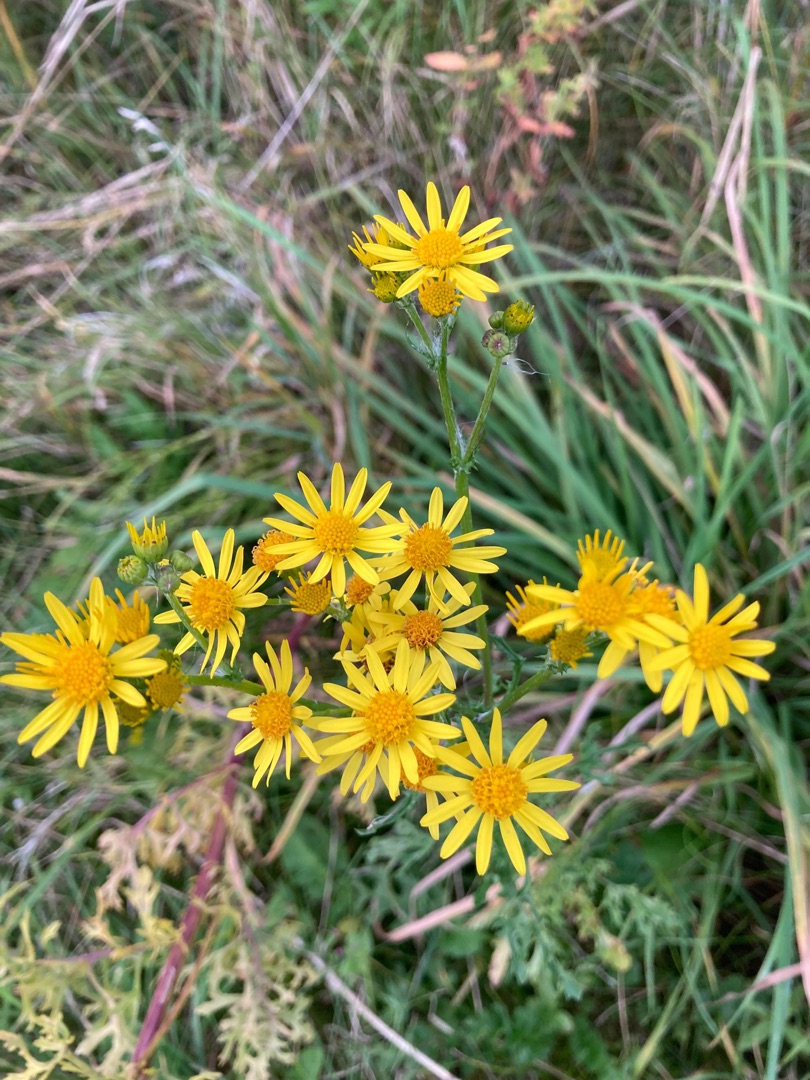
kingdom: Plantae
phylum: Tracheophyta
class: Magnoliopsida
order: Asterales
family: Asteraceae
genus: Jacobaea
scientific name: Jacobaea vulgaris
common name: Eng-brandbæger
